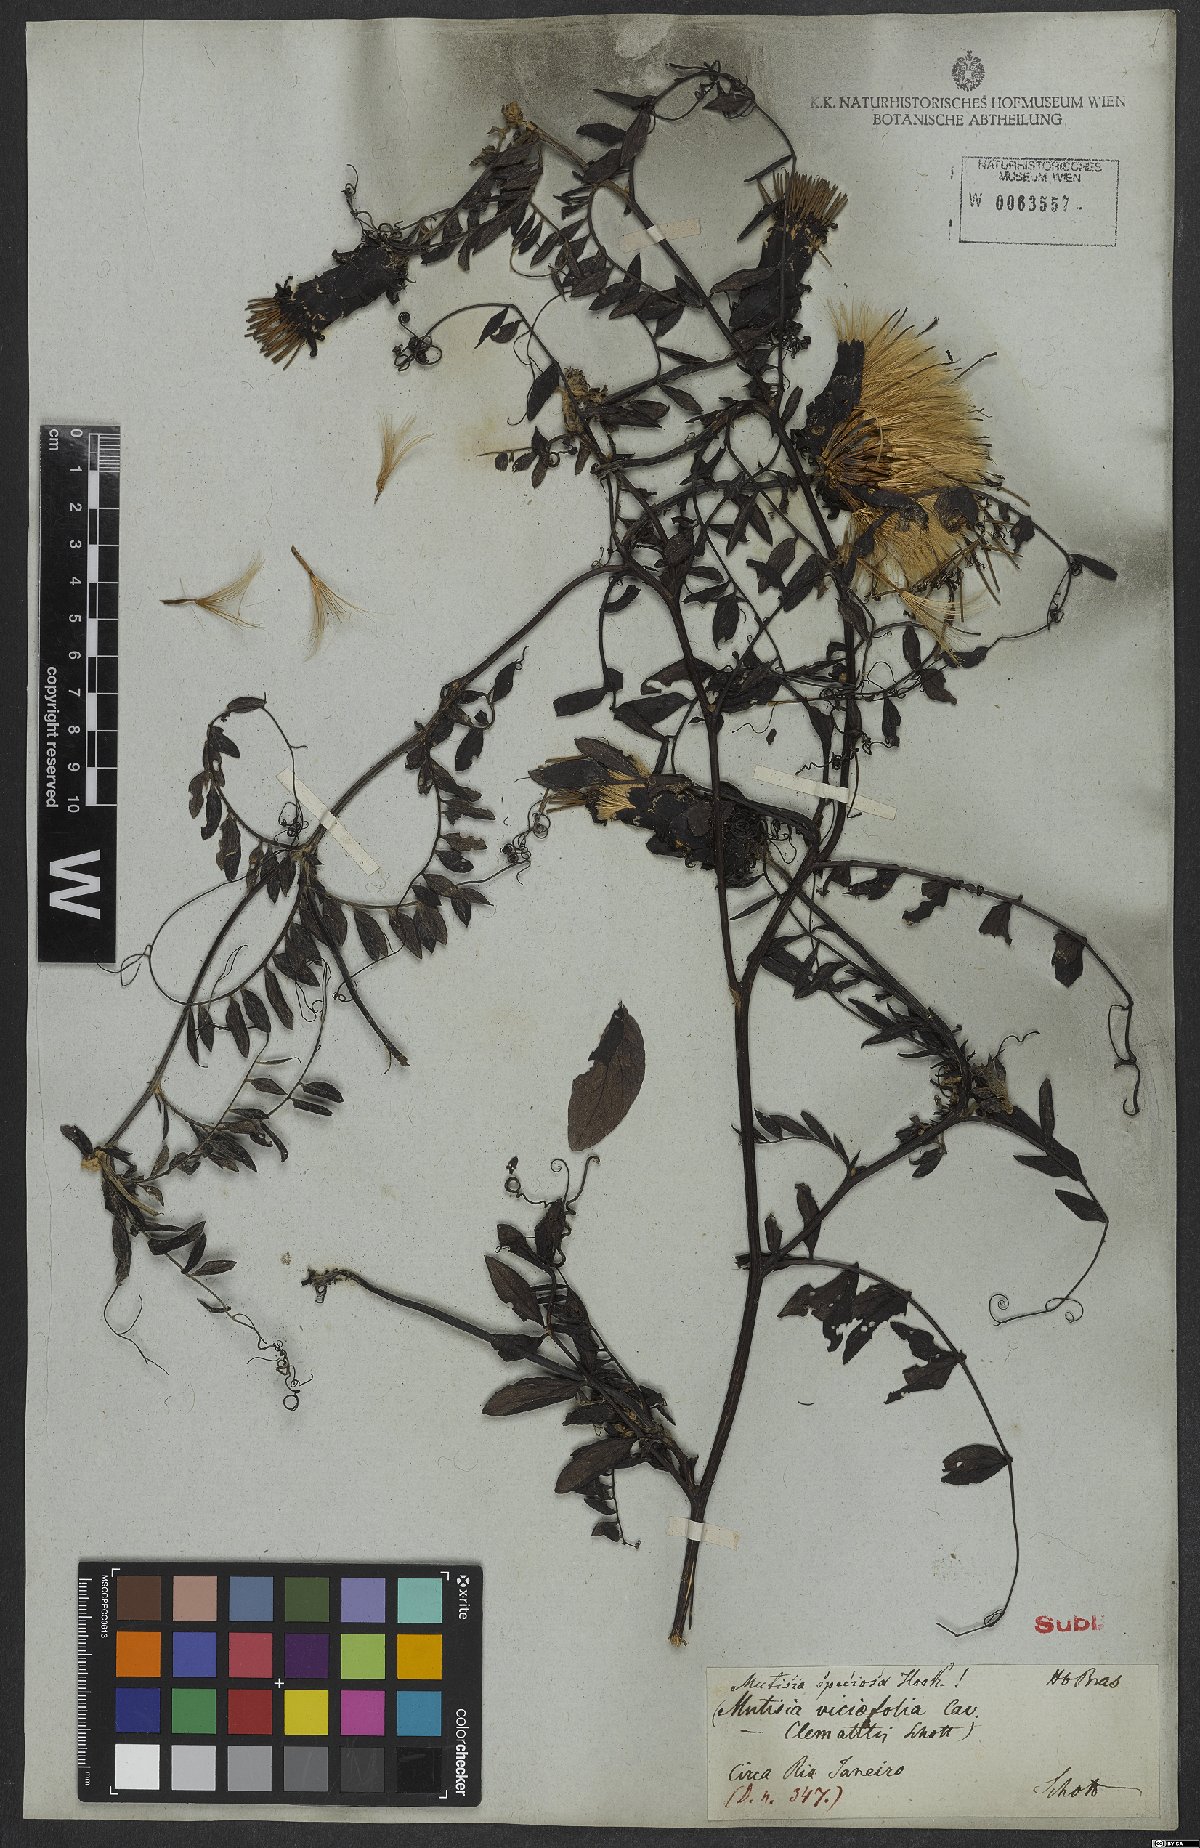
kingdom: Plantae
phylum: Tracheophyta
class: Magnoliopsida
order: Asterales
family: Asteraceae
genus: Mutisia
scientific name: Mutisia speciosa
